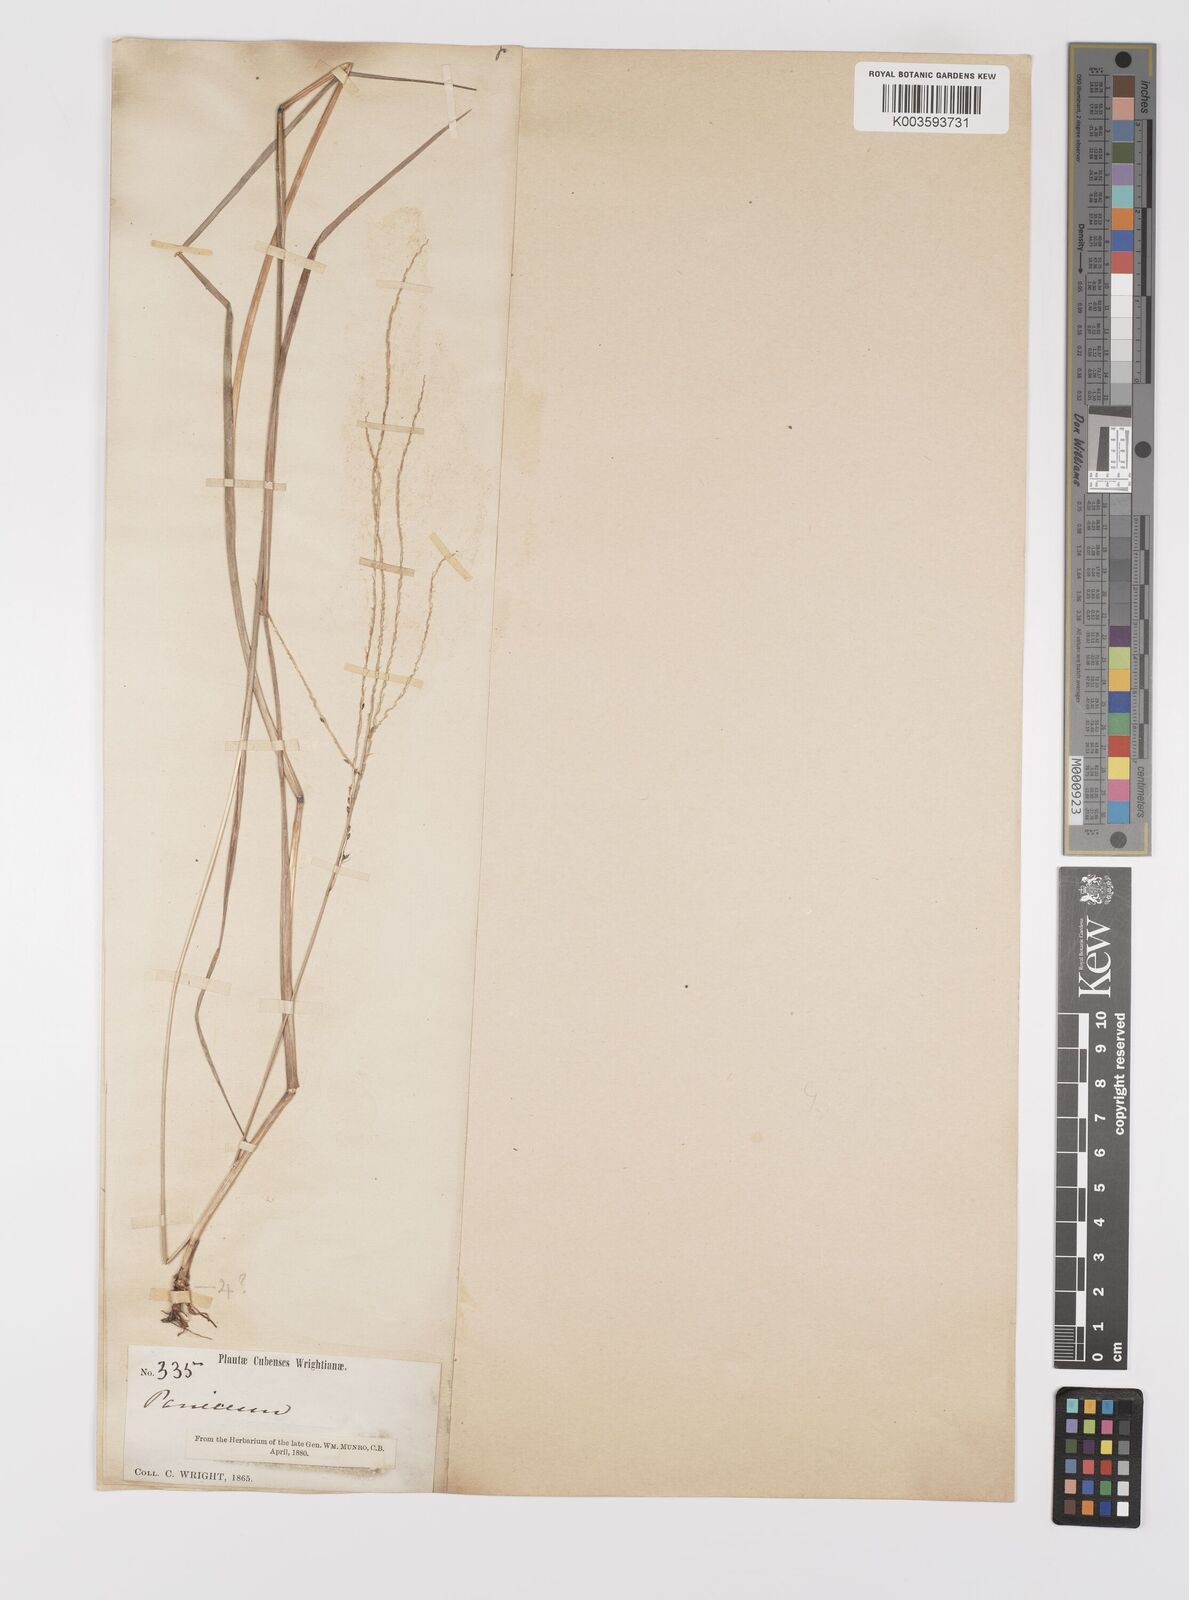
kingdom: Plantae
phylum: Tracheophyta
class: Liliopsida
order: Poales
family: Poaceae
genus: Digitaria
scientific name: Digitaria villosa
